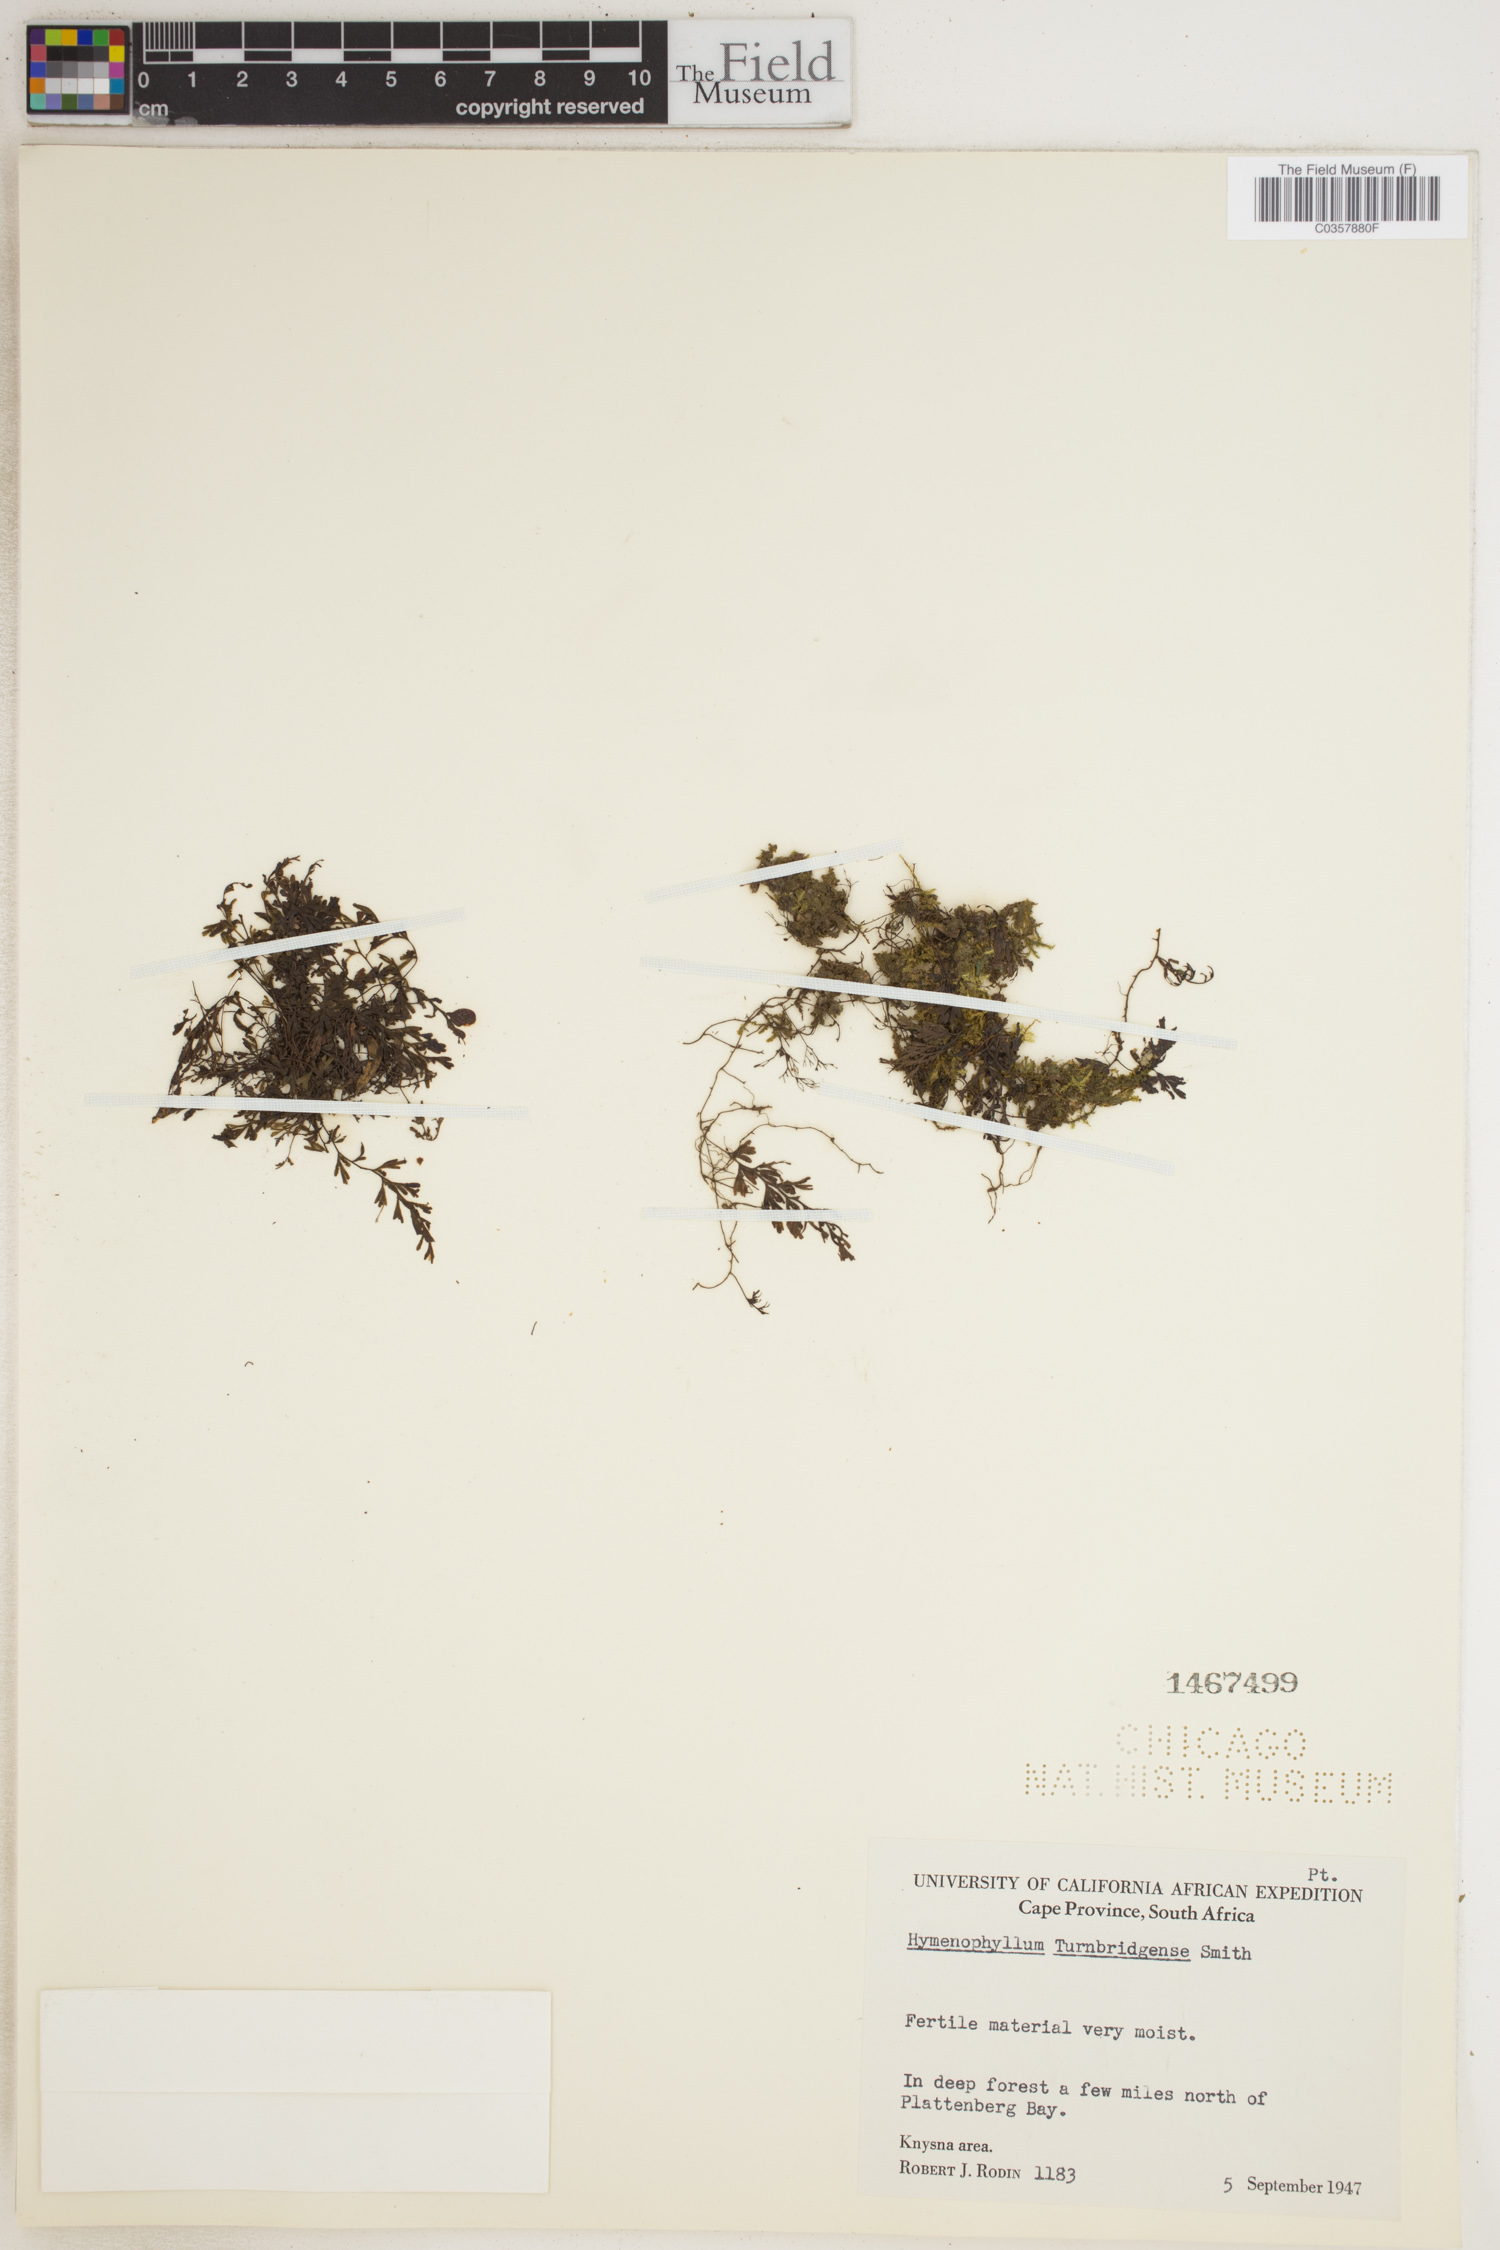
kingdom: Plantae
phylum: Tracheophyta
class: Polypodiopsida
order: Hymenophyllales
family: Hymenophyllaceae
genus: Hymenophyllum
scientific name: Hymenophyllum tunbridgense
